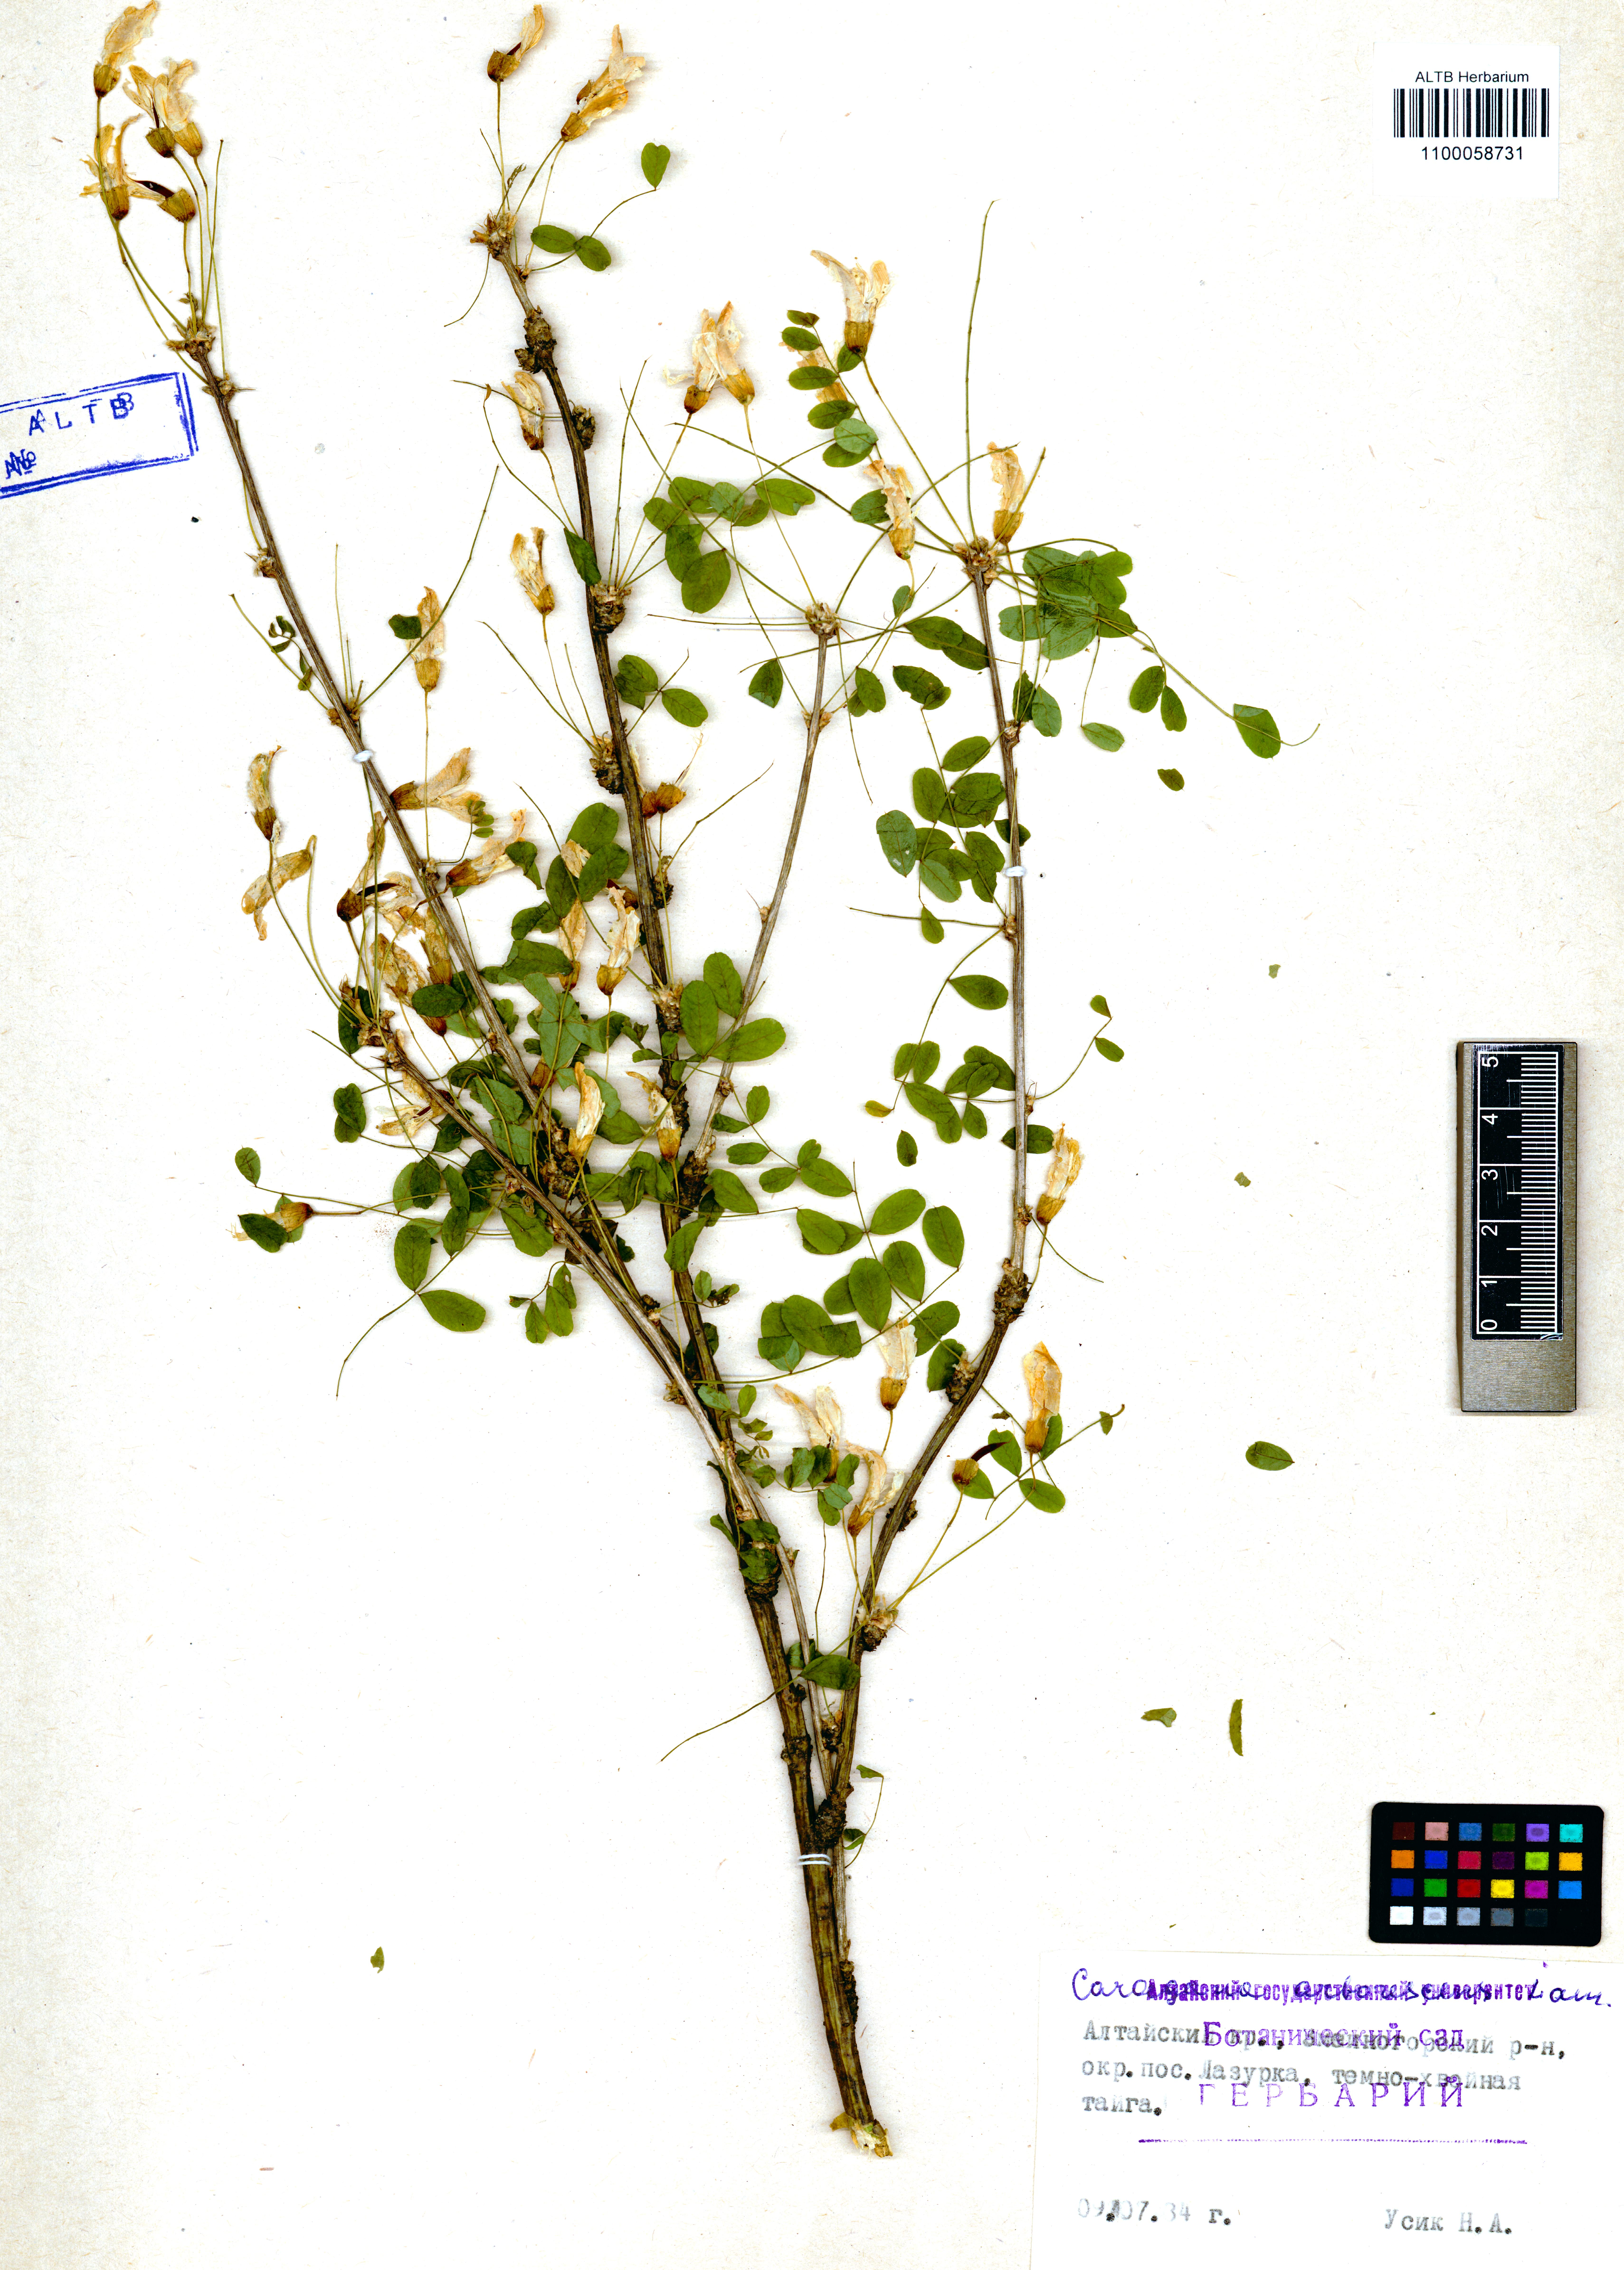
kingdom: Plantae
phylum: Tracheophyta
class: Magnoliopsida
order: Fabales
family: Fabaceae
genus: Caragana
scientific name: Caragana arborescens
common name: Siberian peashrub
